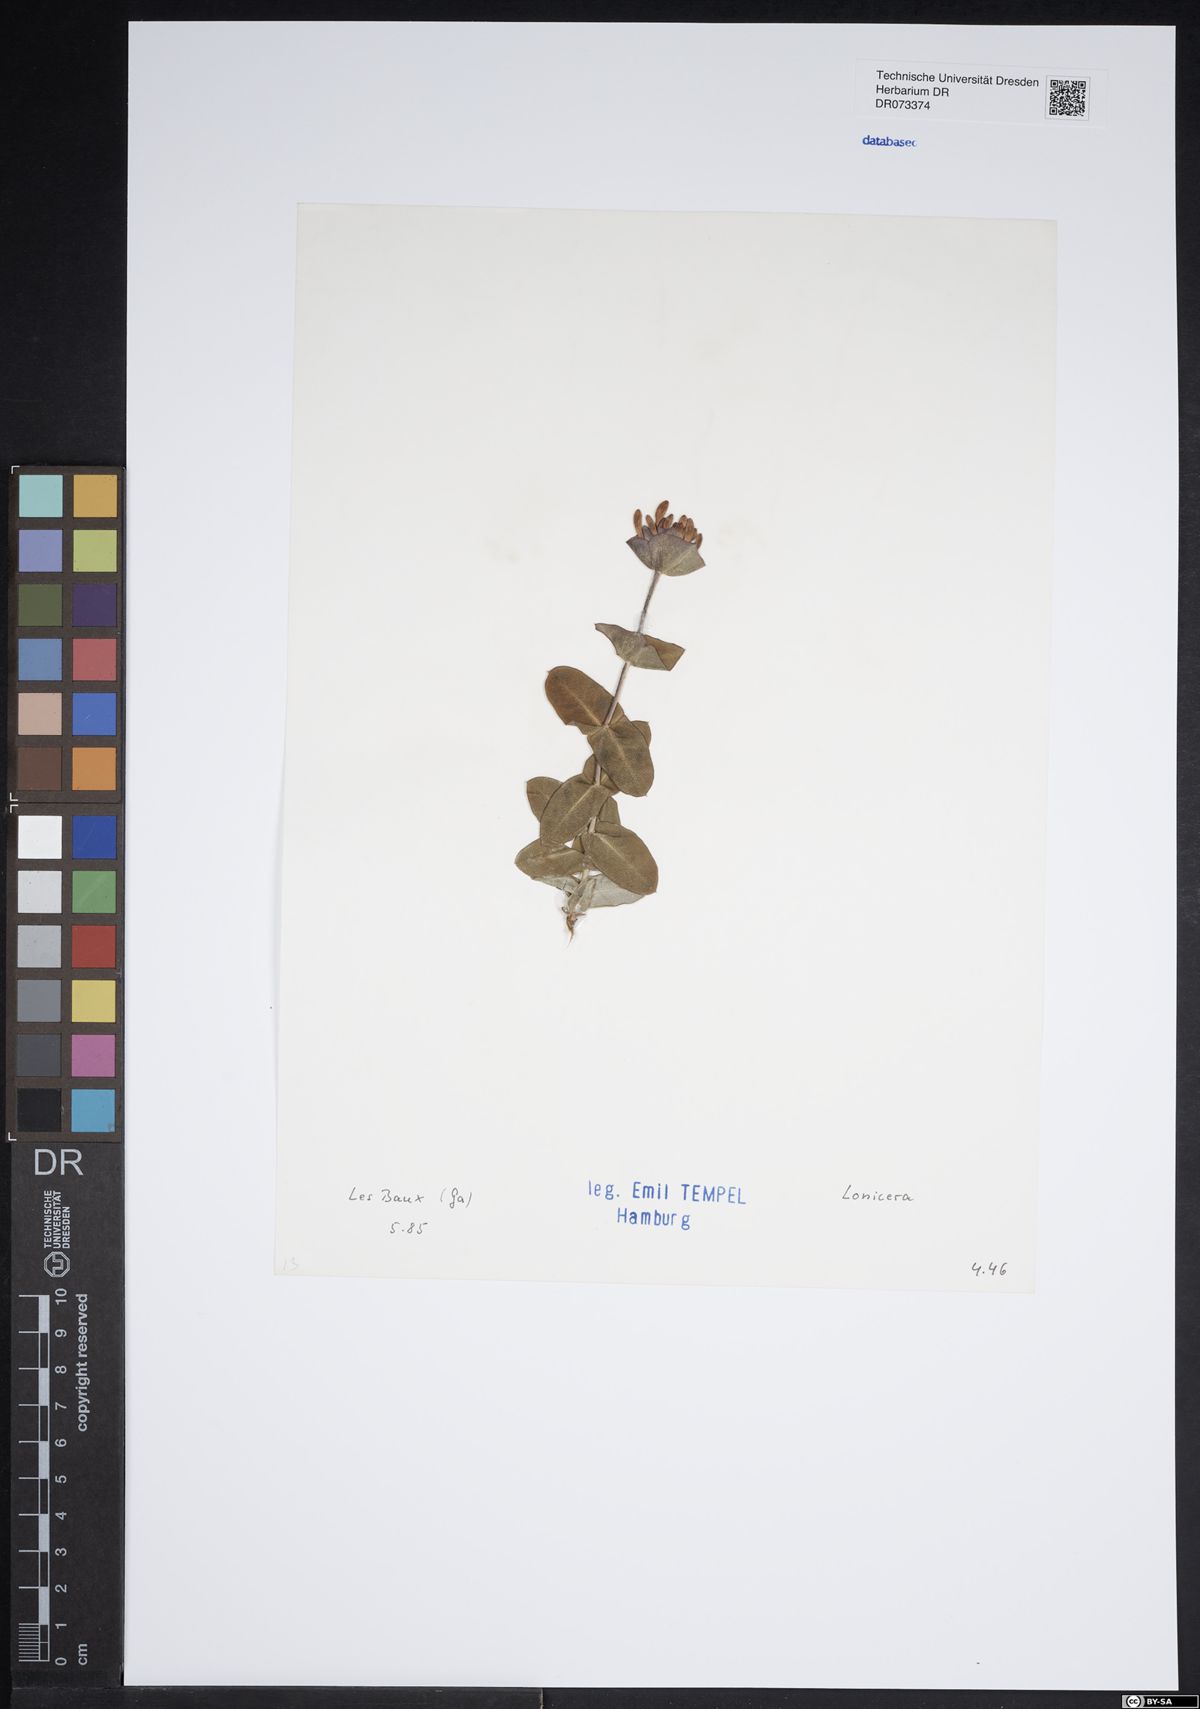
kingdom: Plantae
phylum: Tracheophyta
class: Magnoliopsida
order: Dipsacales
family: Caprifoliaceae
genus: Lonicera
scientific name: Lonicera
